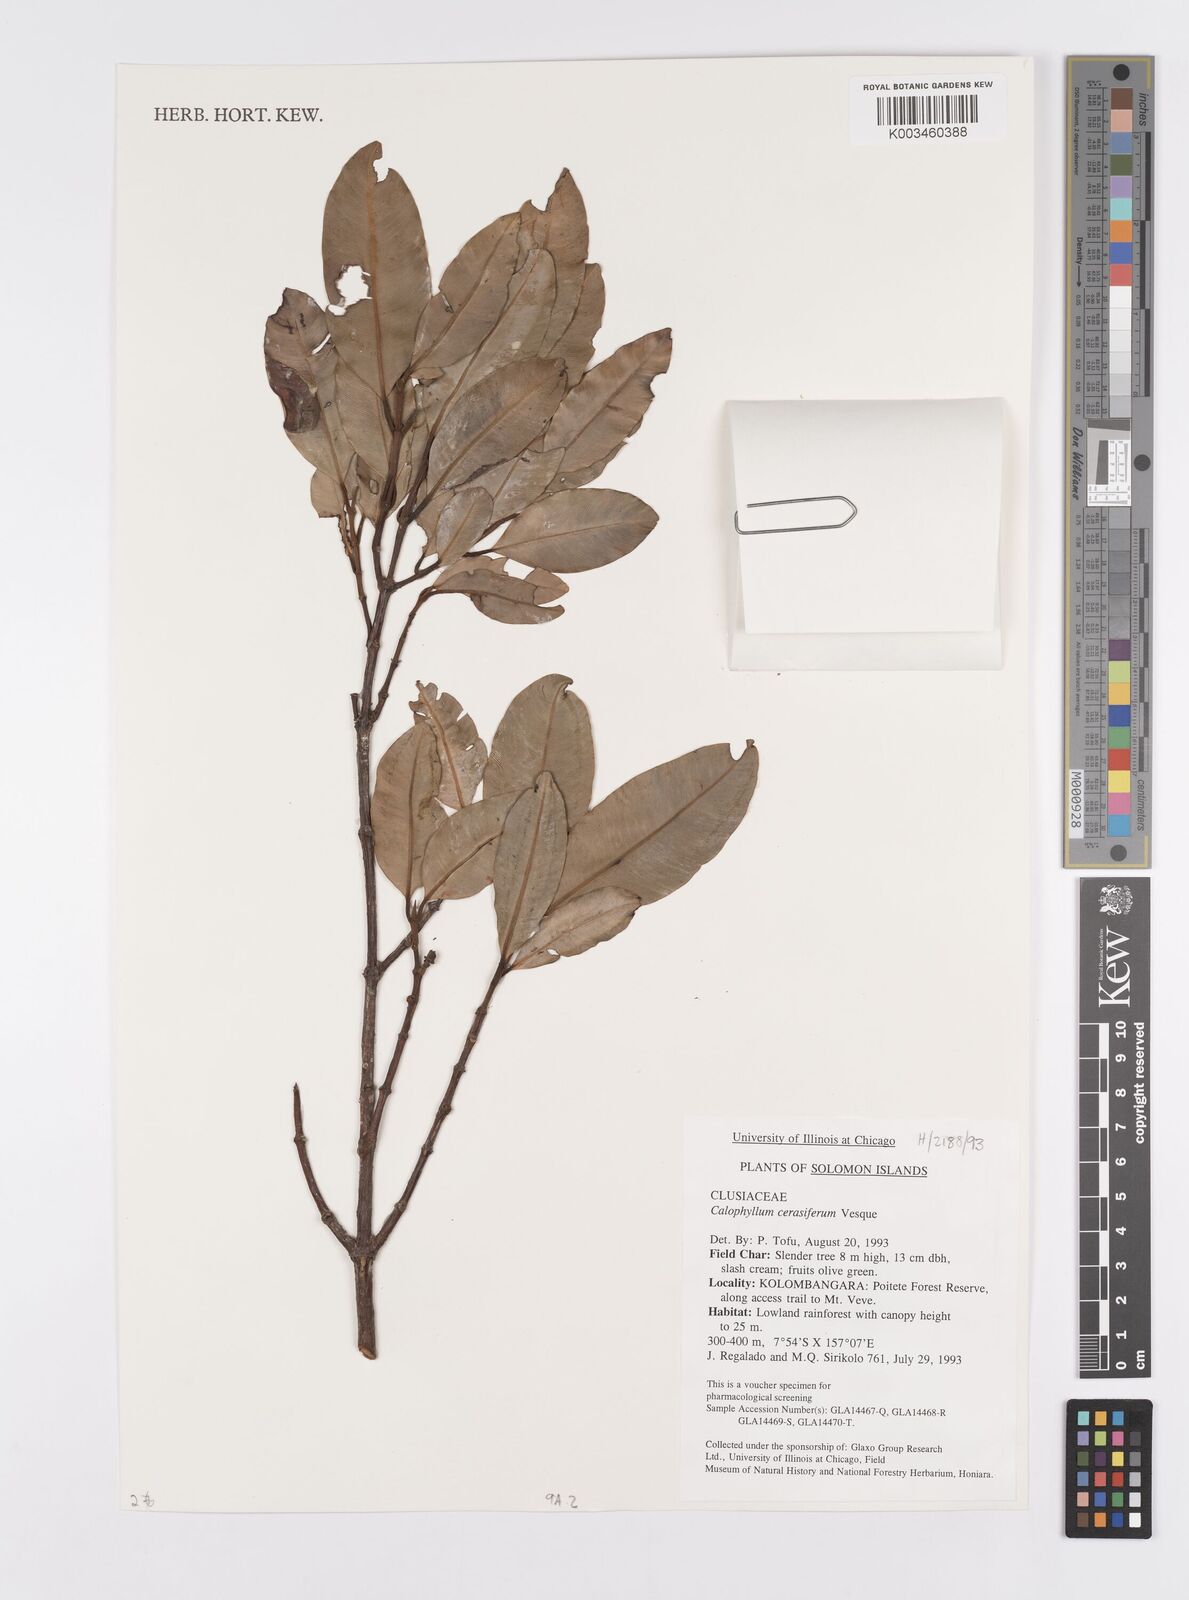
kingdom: Plantae
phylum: Tracheophyta
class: Magnoliopsida
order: Malpighiales
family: Calophyllaceae
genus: Calophyllum
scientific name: Calophyllum cerasiferum
